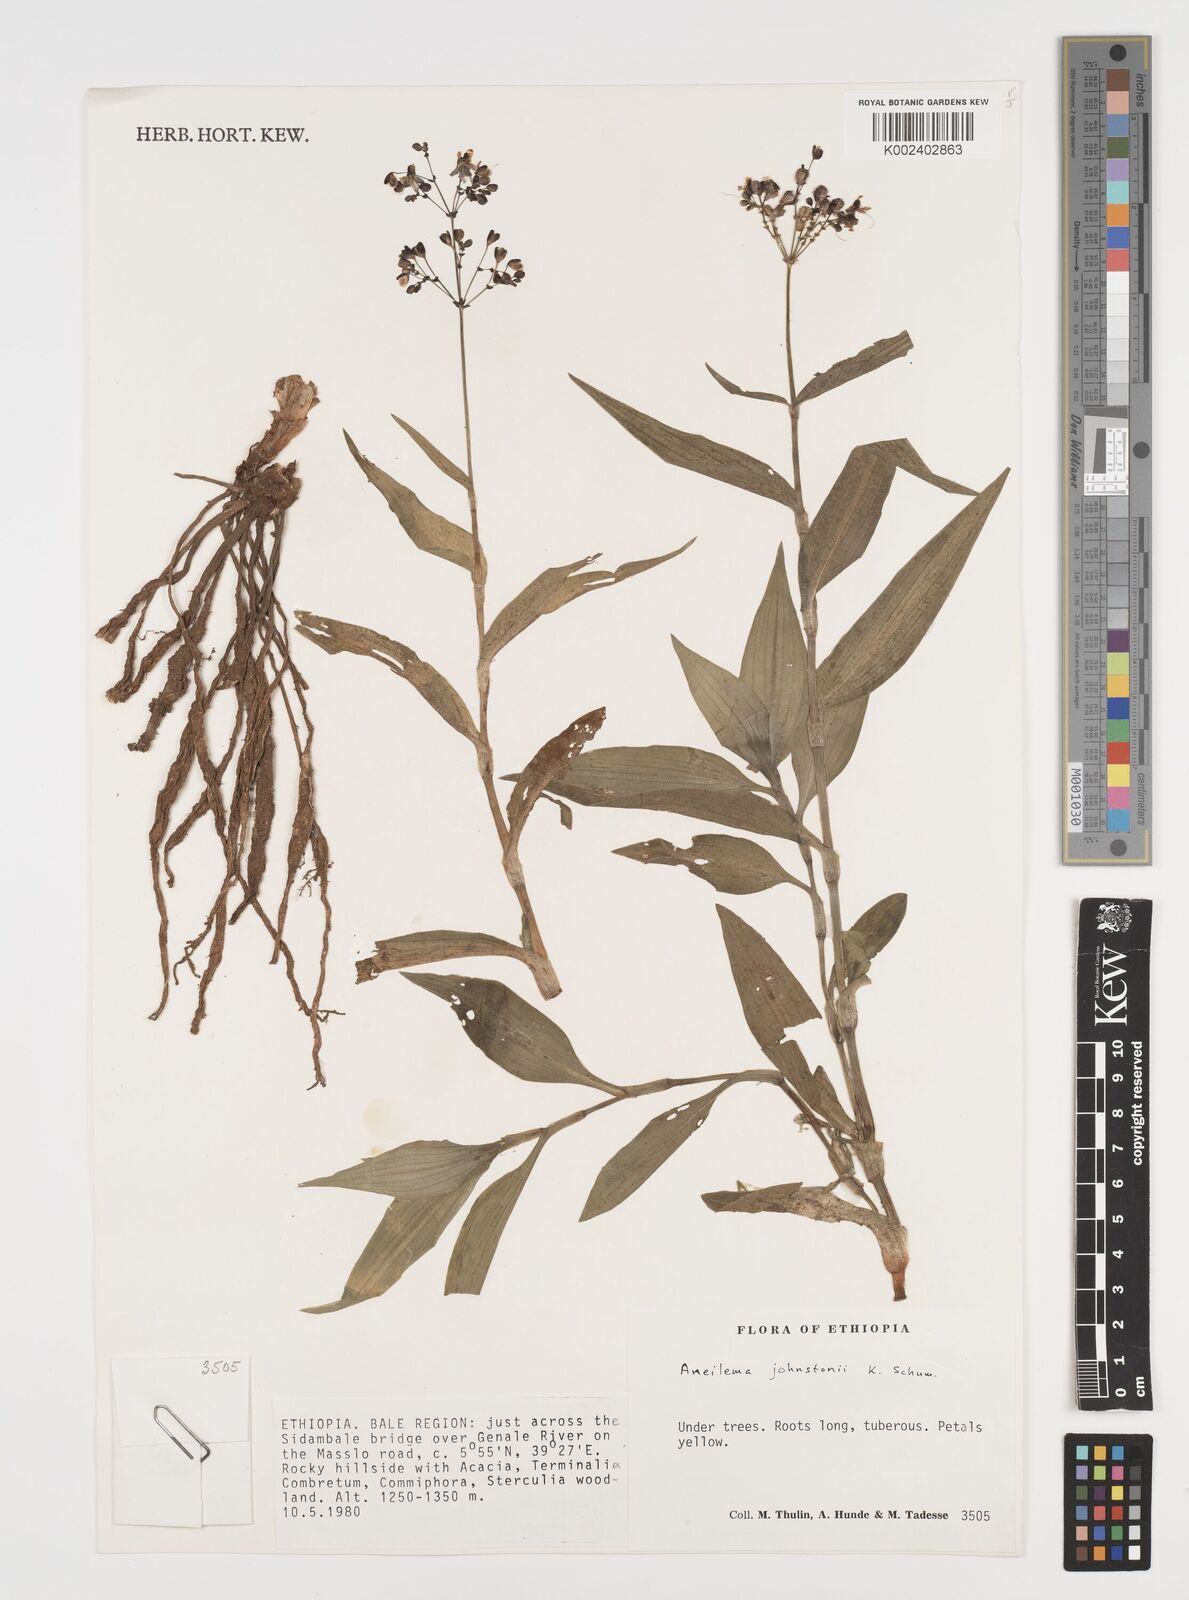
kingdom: Plantae
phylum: Tracheophyta
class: Liliopsida
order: Commelinales
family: Commelinaceae
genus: Aneilema
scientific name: Aneilema johnstonii
